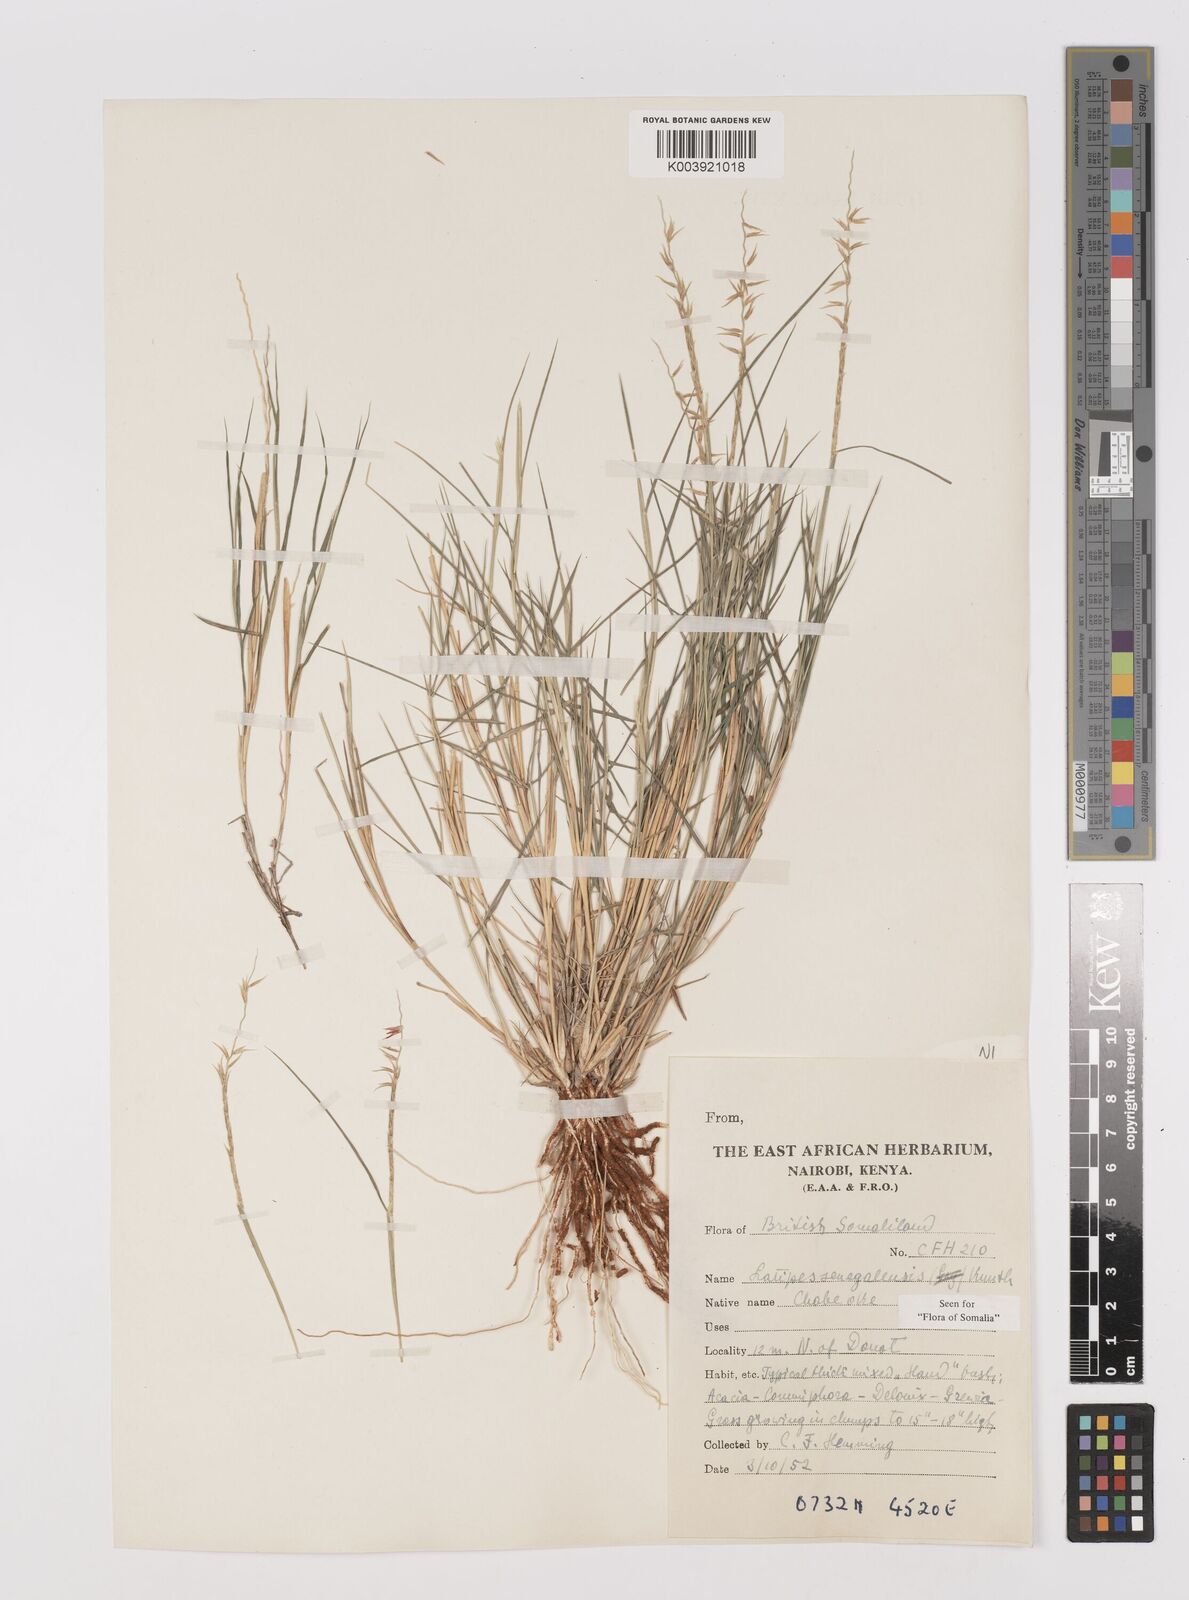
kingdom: Plantae
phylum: Tracheophyta
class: Liliopsida
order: Poales
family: Poaceae
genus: Leptothrium
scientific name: Leptothrium senegalense
